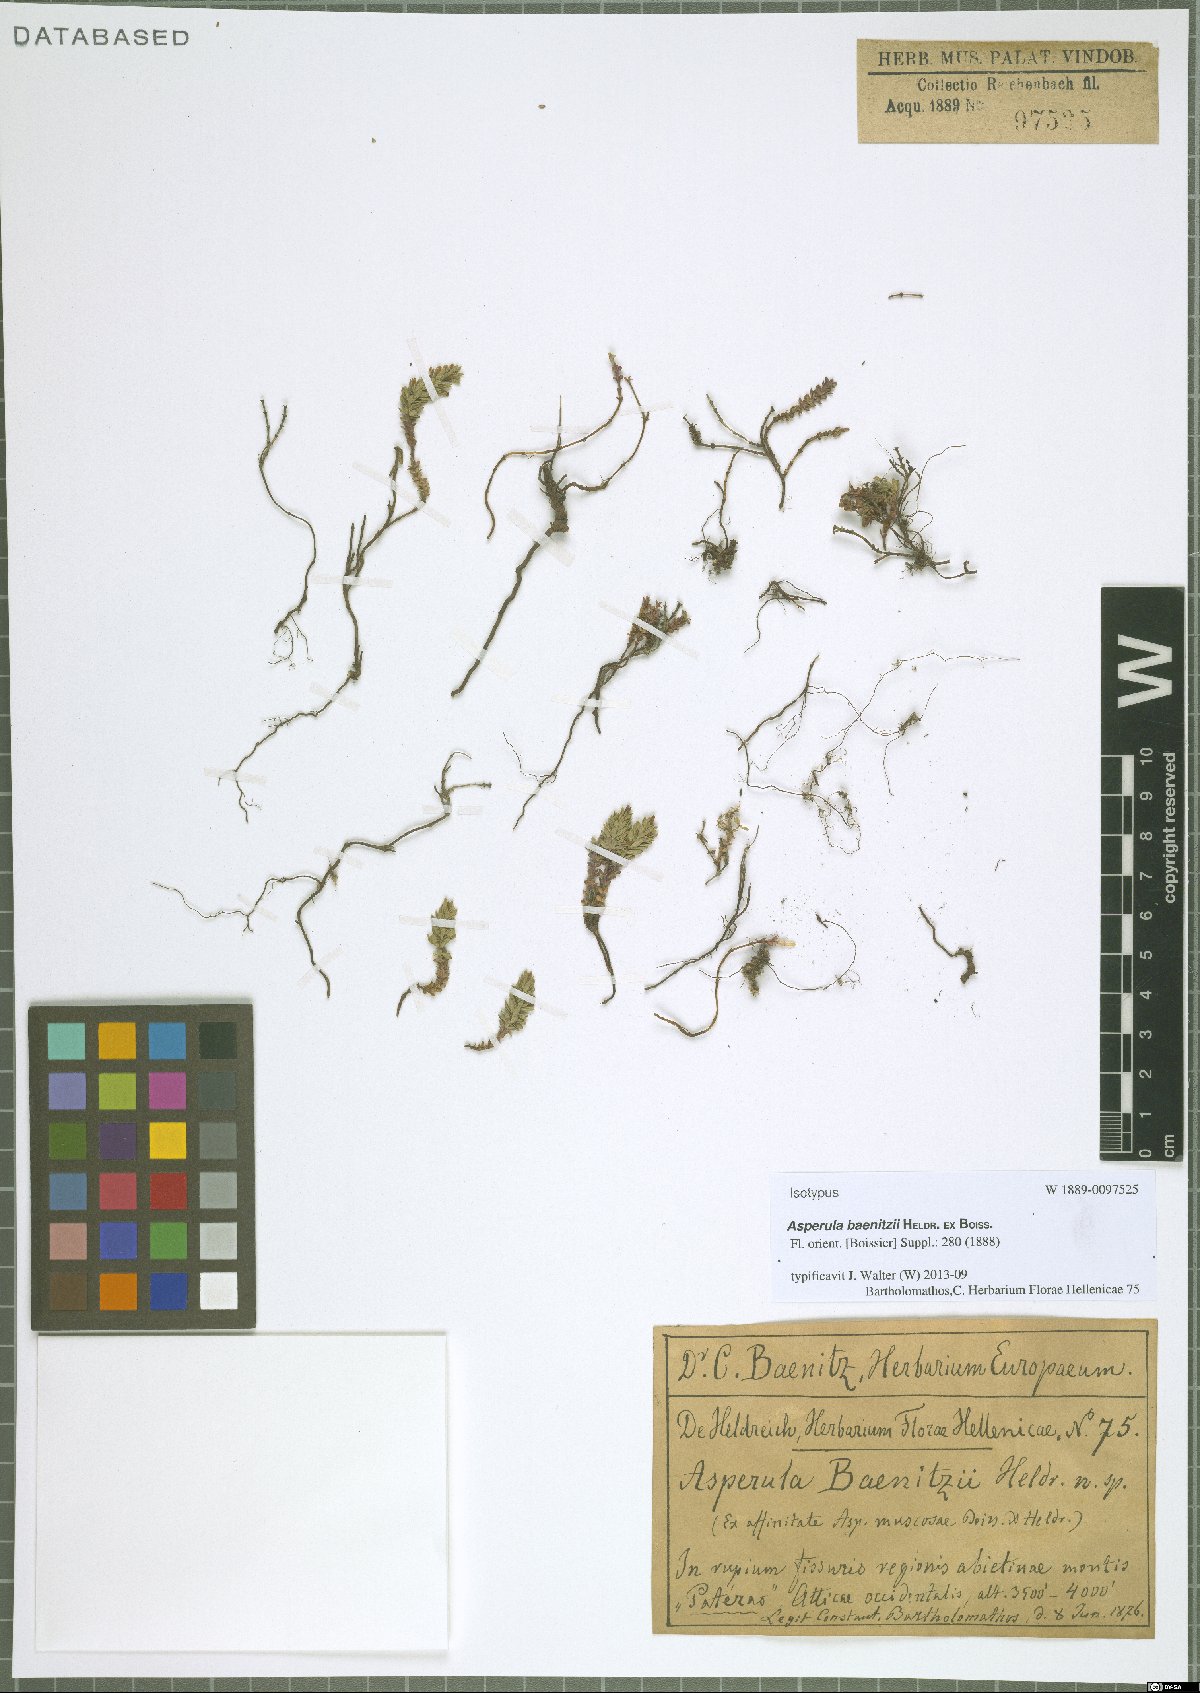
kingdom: Plantae
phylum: Tracheophyta
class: Magnoliopsida
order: Gentianales
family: Rubiaceae
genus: Thliphthisa
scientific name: Thliphthisa baenitzii
